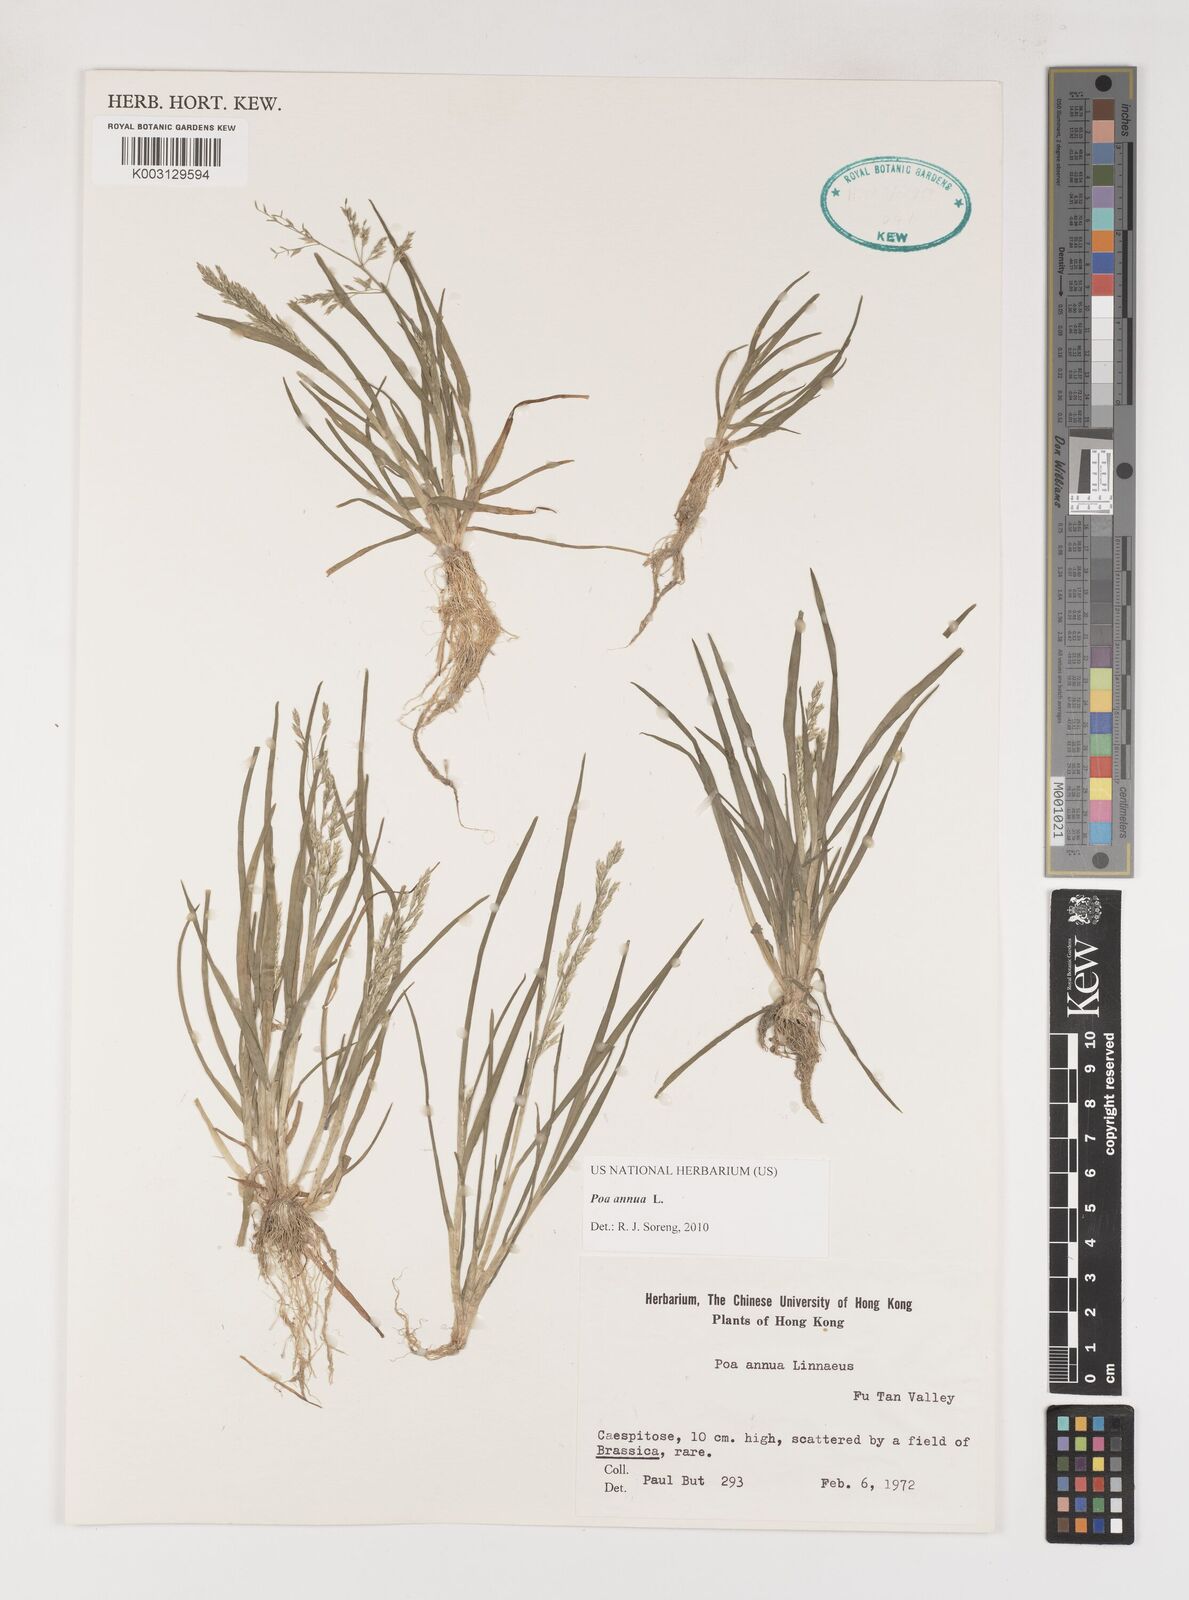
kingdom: Plantae
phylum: Tracheophyta
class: Liliopsida
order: Poales
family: Poaceae
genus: Poa
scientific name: Poa annua
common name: Annual bluegrass
